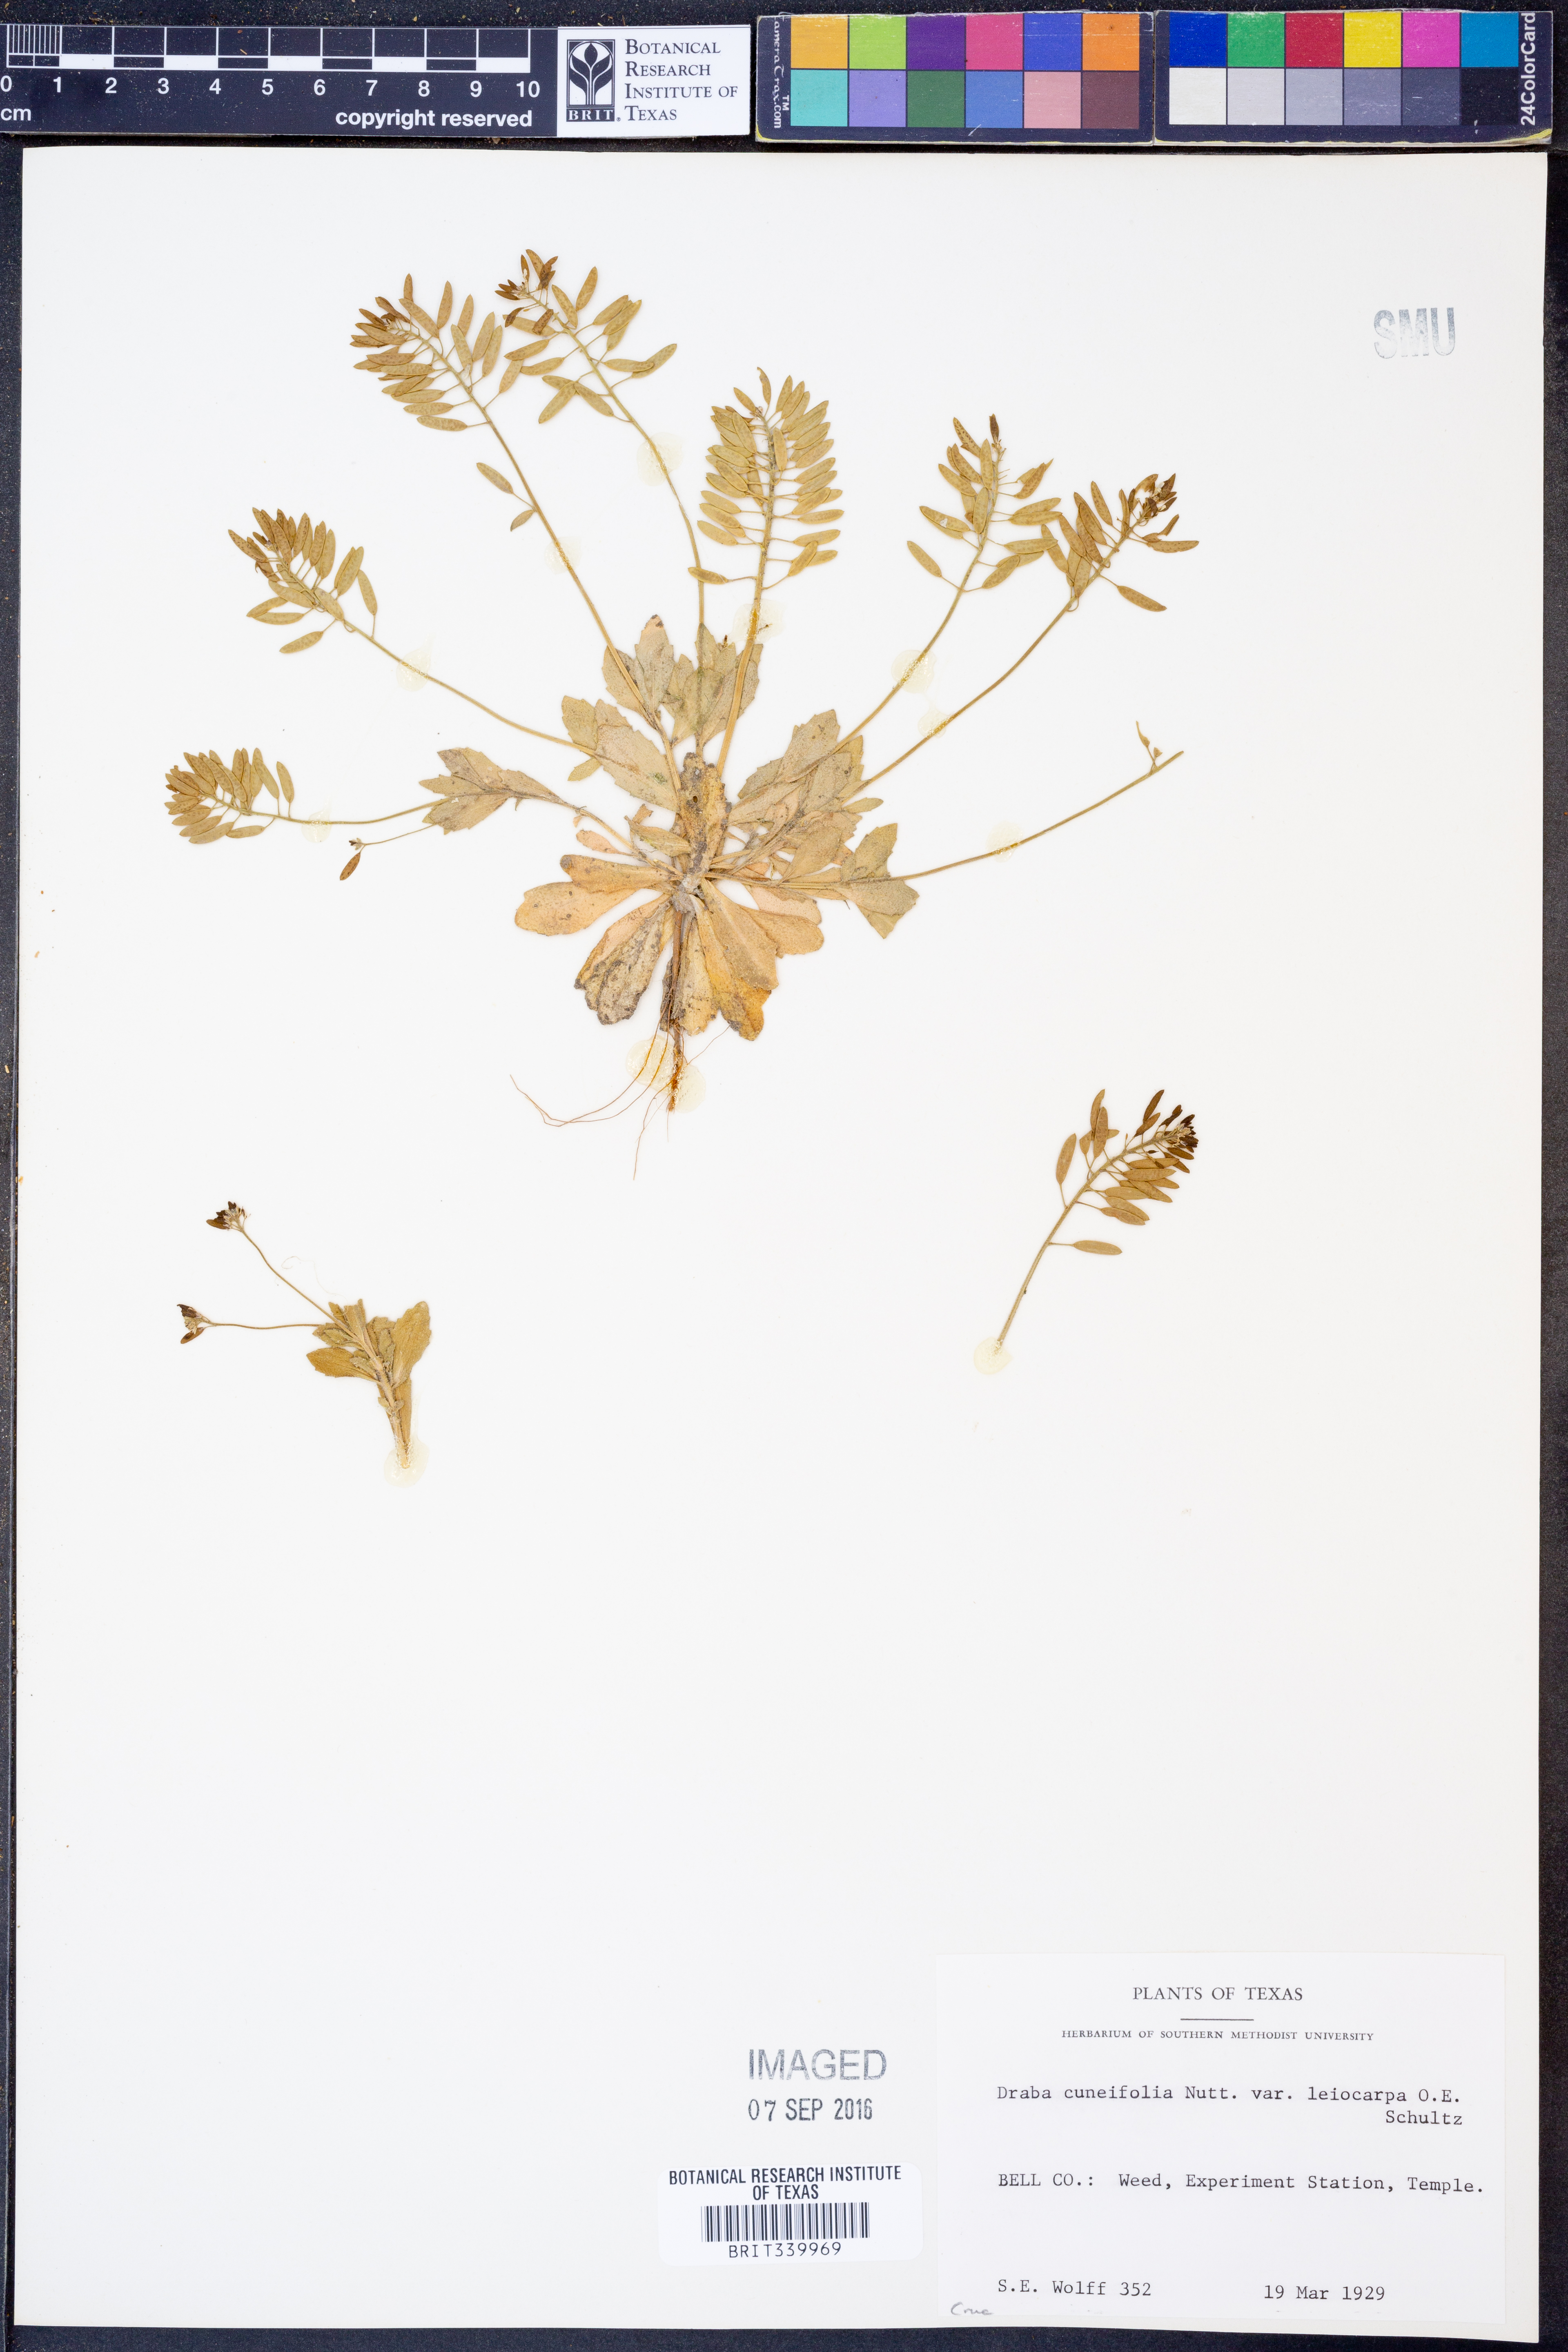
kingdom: Plantae
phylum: Tracheophyta
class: Magnoliopsida
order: Brassicales
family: Brassicaceae
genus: Tomostima
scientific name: Tomostima cuneifolia
